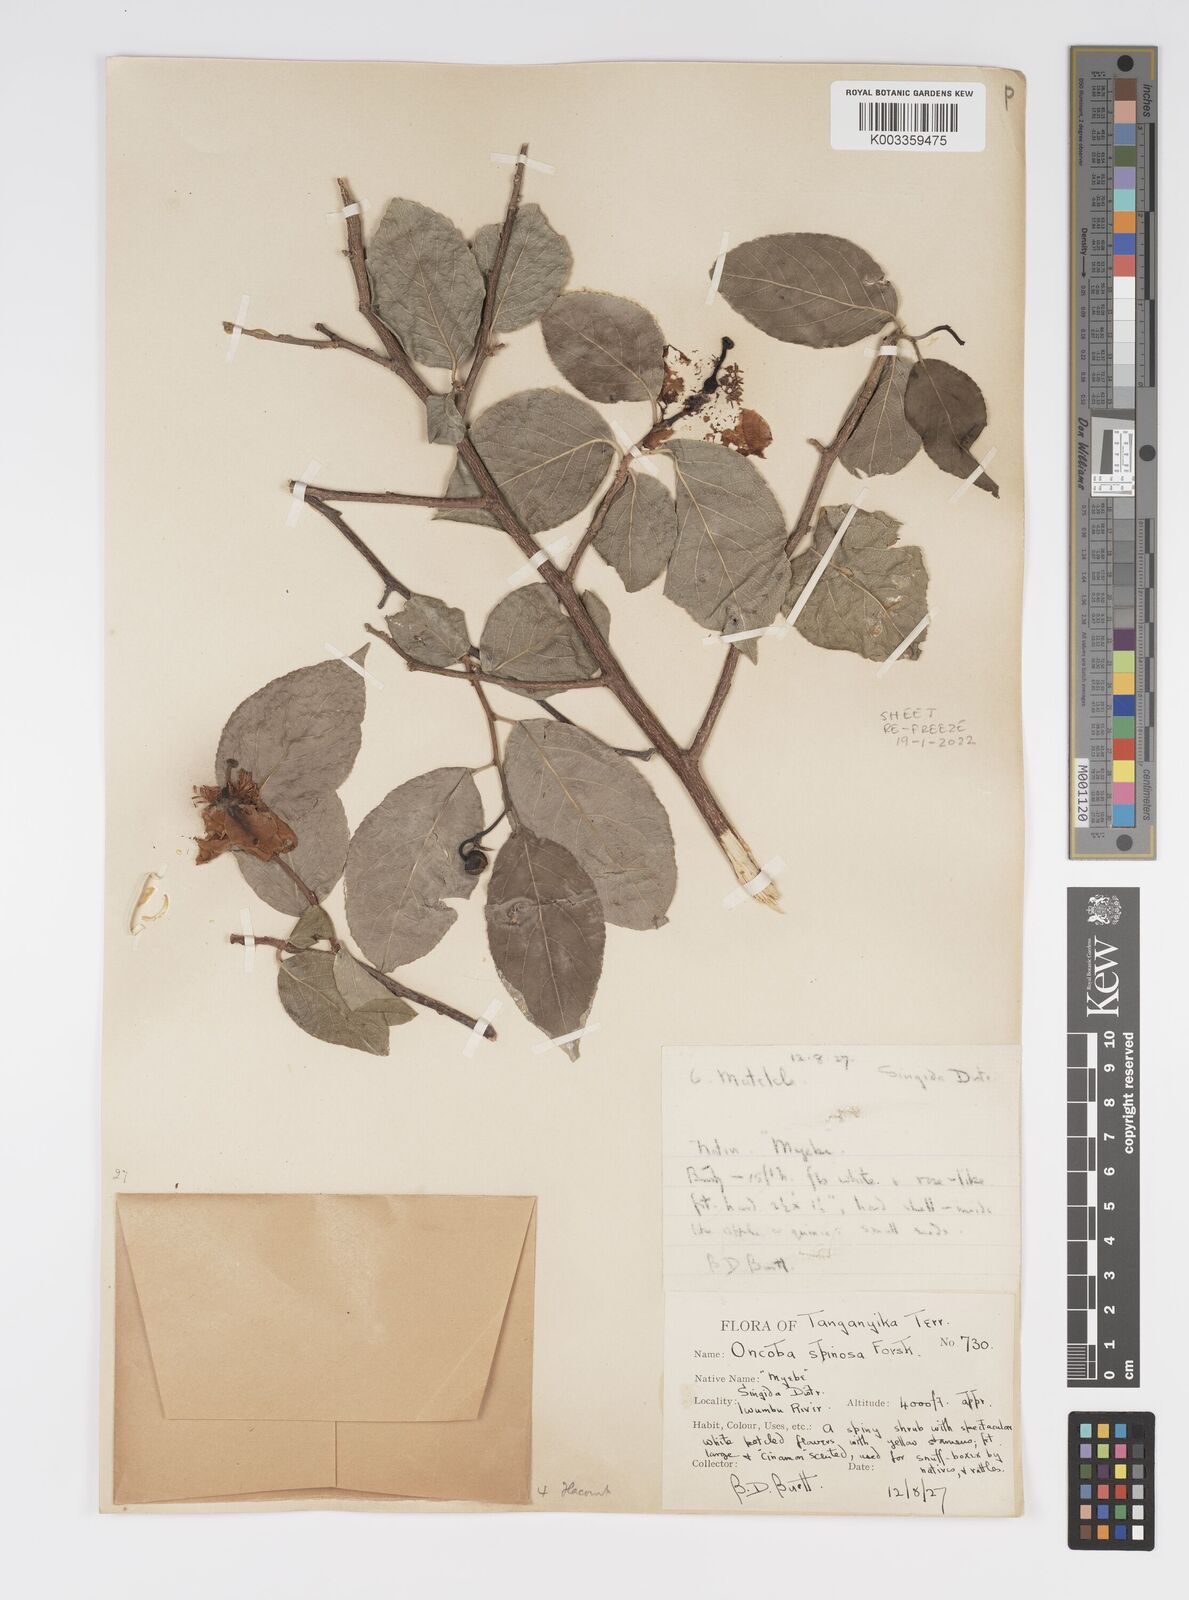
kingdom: Plantae
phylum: Tracheophyta
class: Magnoliopsida
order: Malpighiales
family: Salicaceae
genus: Oncoba
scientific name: Oncoba spinosa
